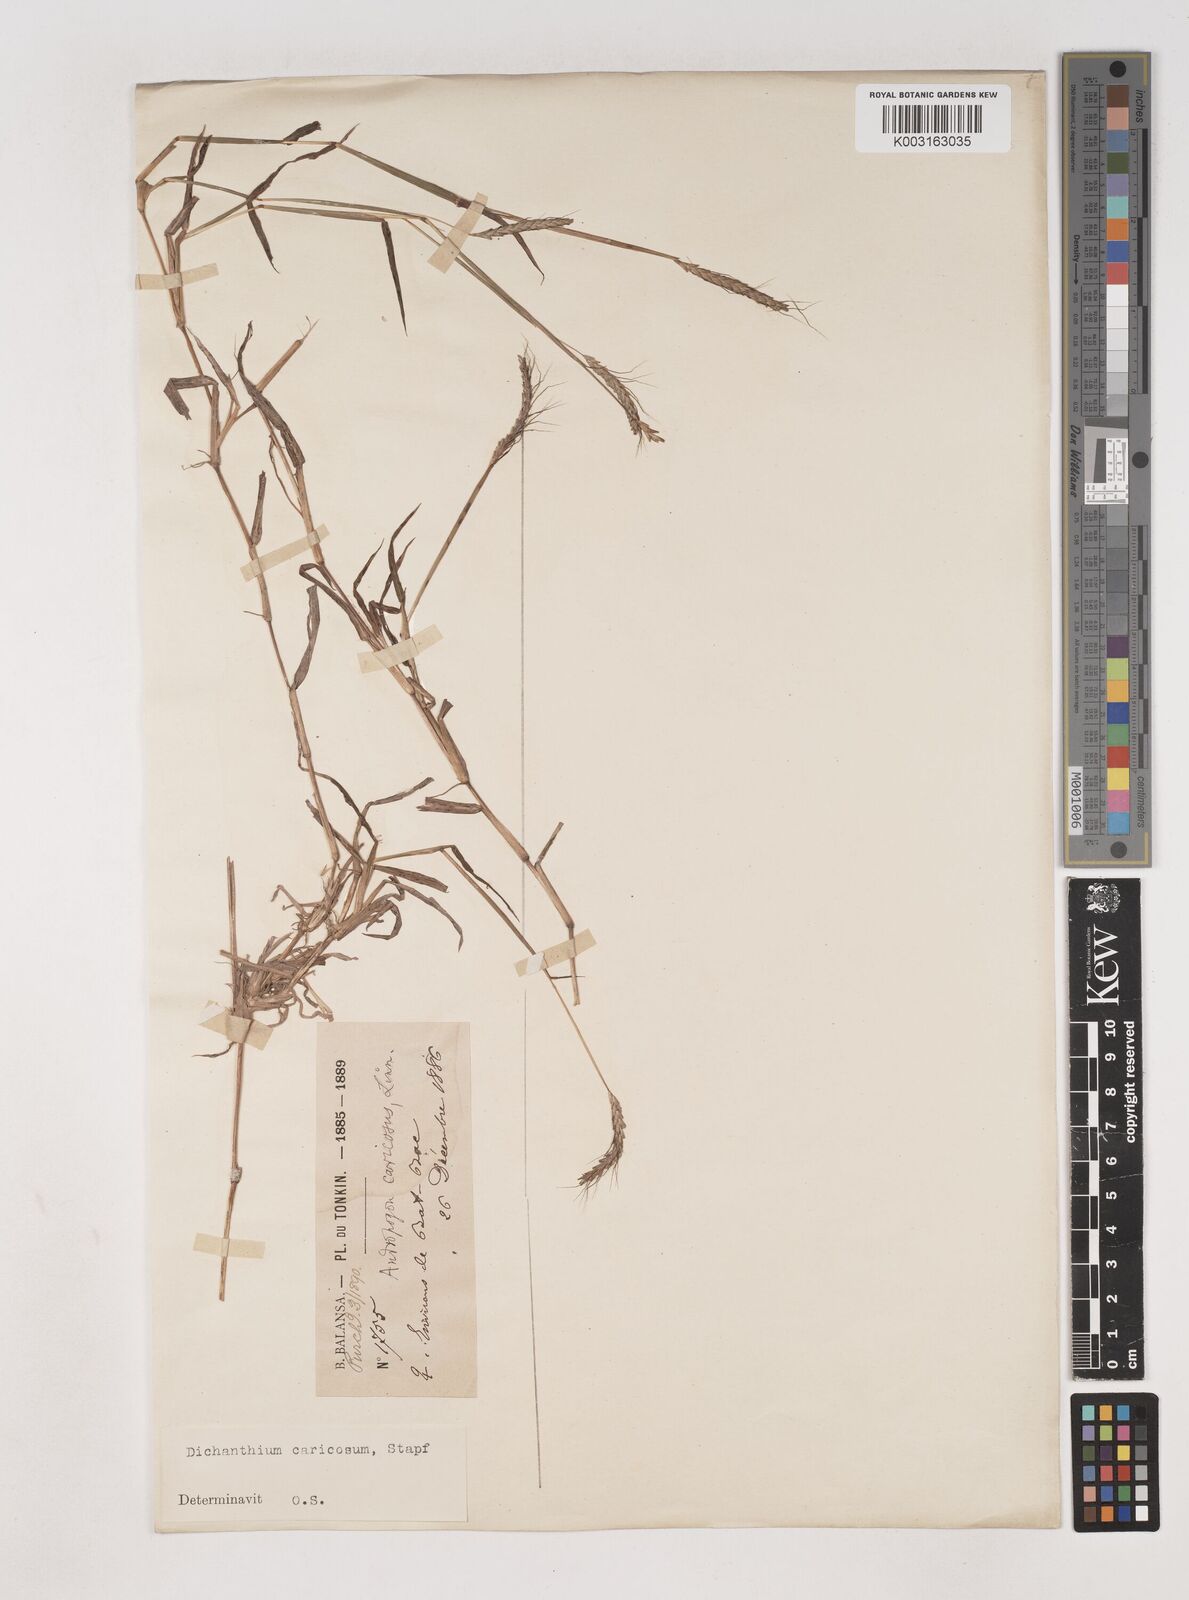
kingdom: Plantae
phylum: Tracheophyta
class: Liliopsida
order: Poales
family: Poaceae
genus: Dichanthium
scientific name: Dichanthium caricosum
